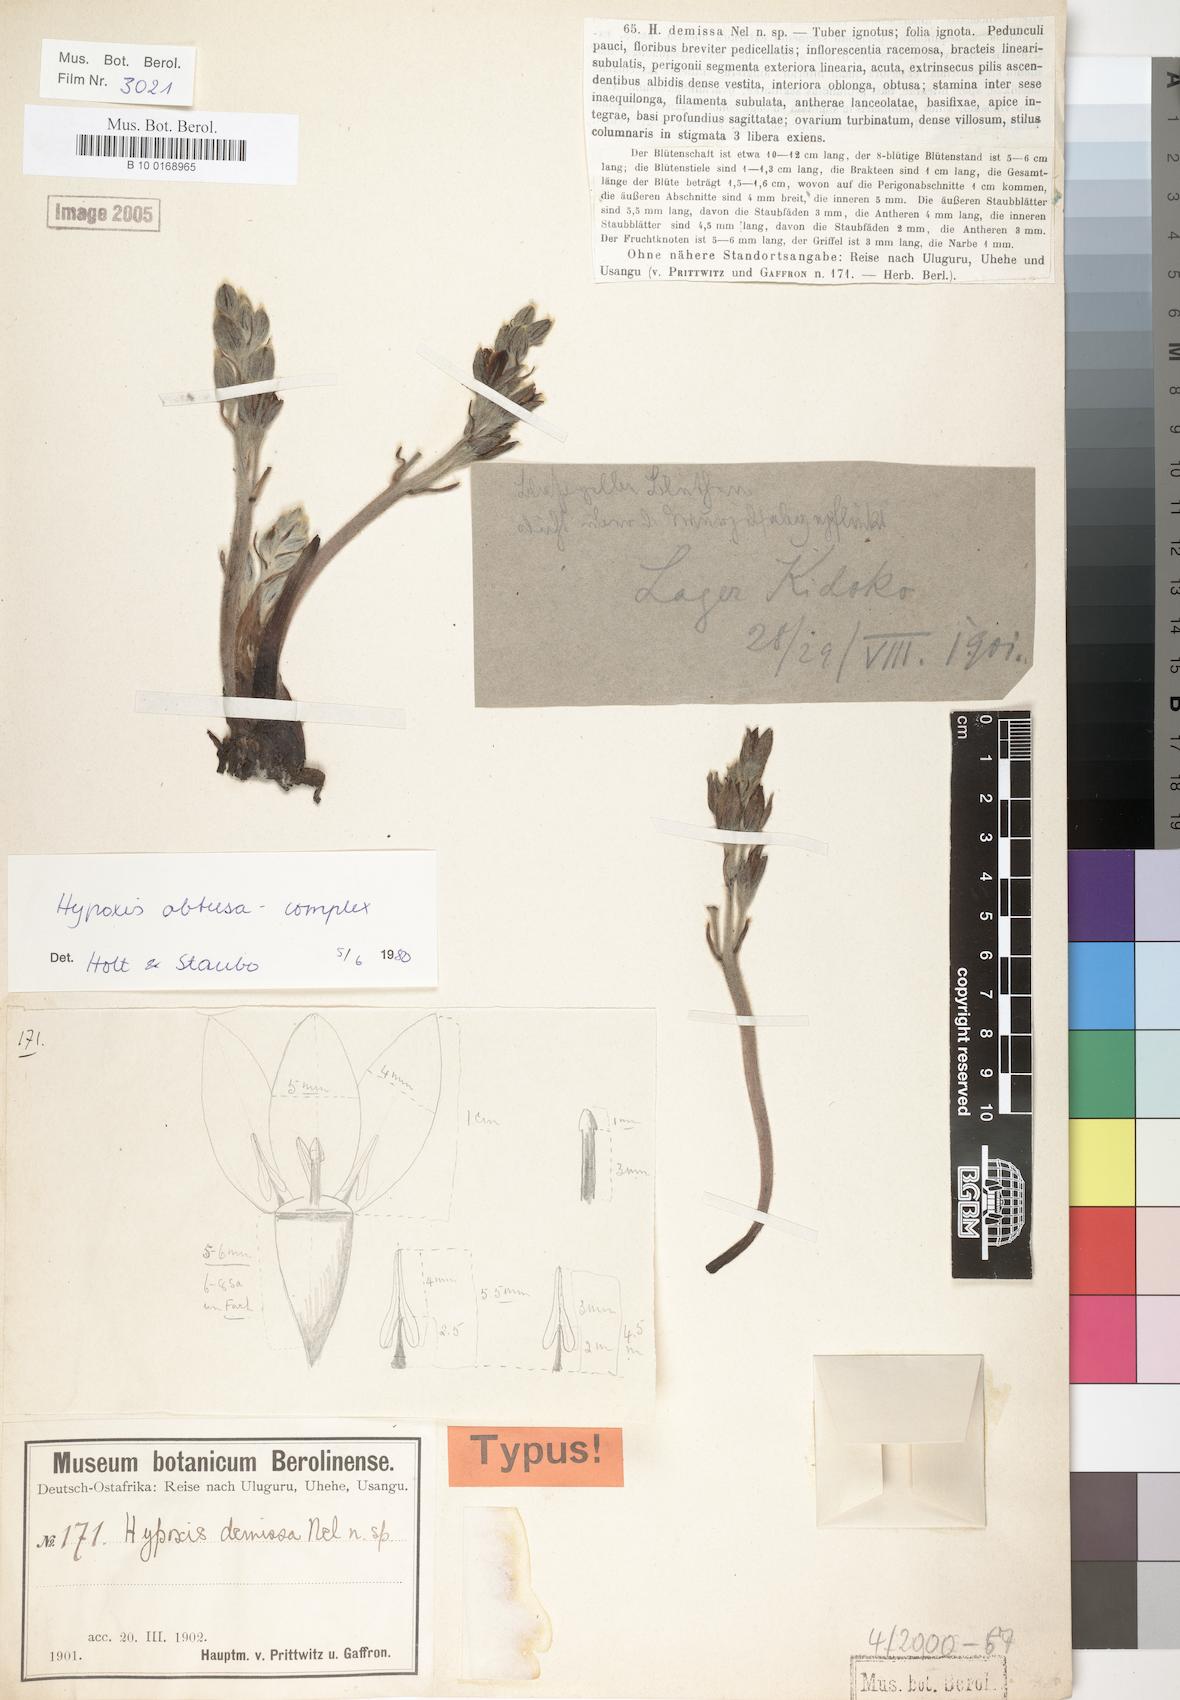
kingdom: Plantae
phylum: Tracheophyta
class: Liliopsida
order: Asparagales
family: Hypoxidaceae
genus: Hypoxis
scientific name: Hypoxis
